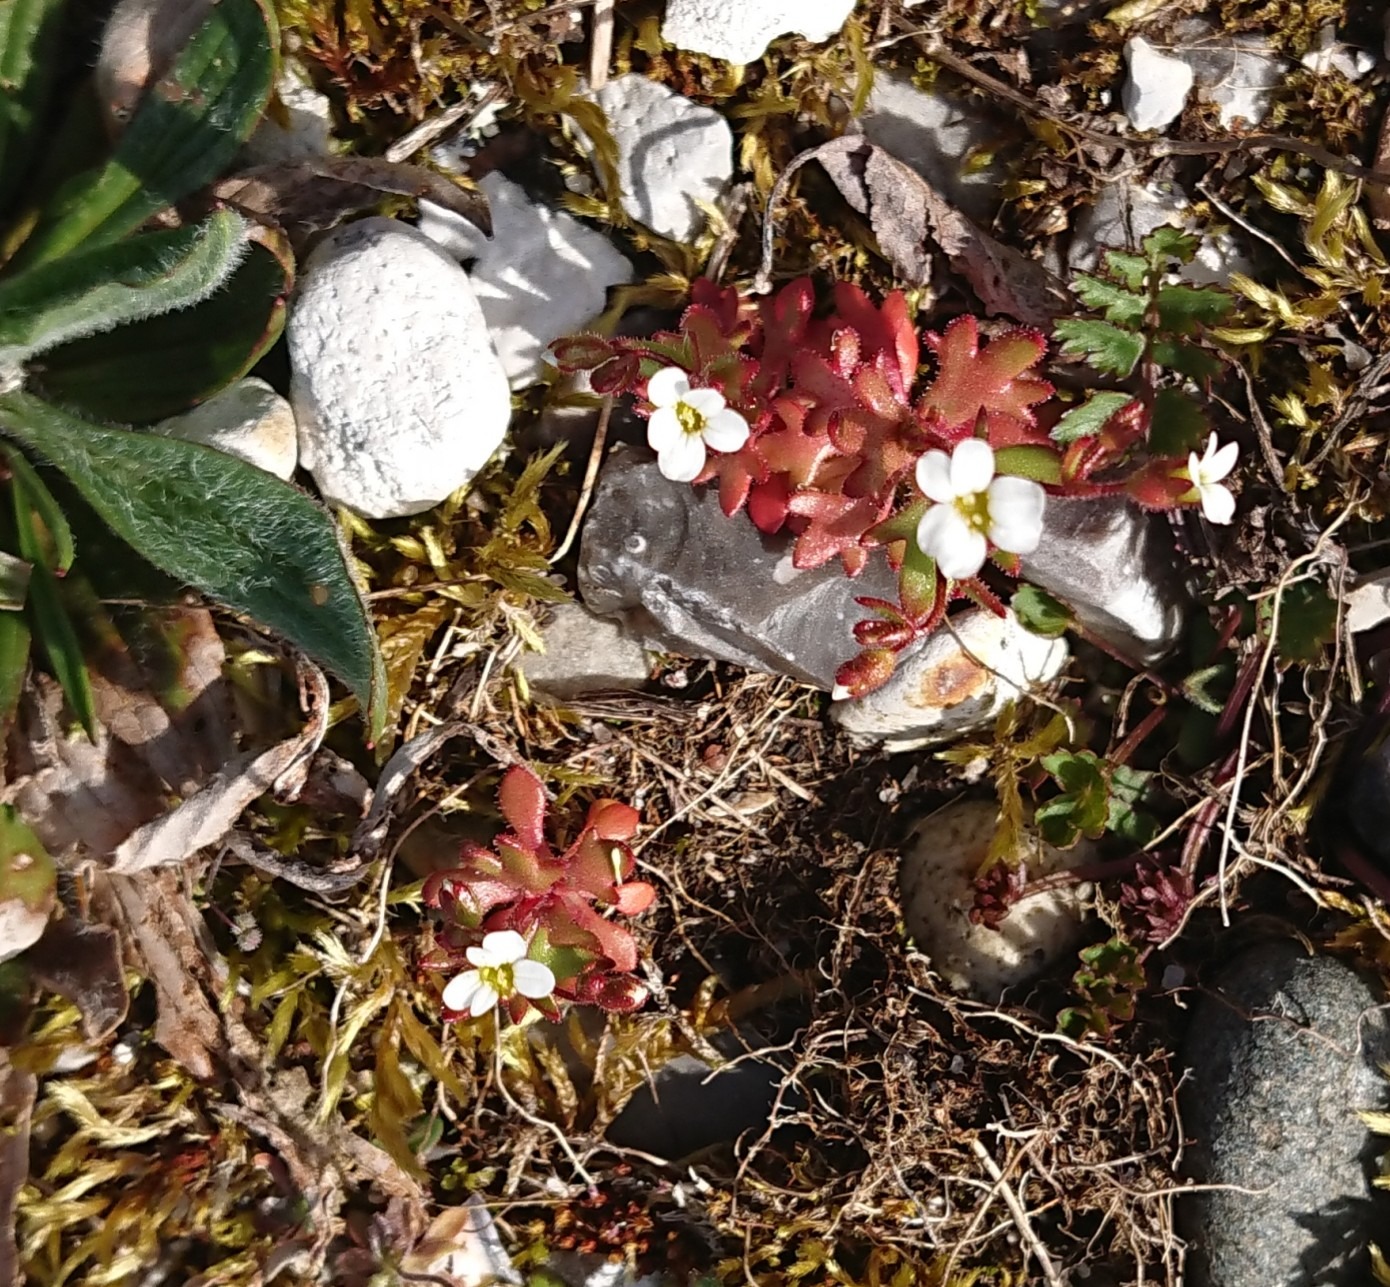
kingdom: Plantae
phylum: Tracheophyta
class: Magnoliopsida
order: Saxifragales
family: Saxifragaceae
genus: Saxifraga
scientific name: Saxifraga tridactylites
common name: Trekløft-stenbræk
